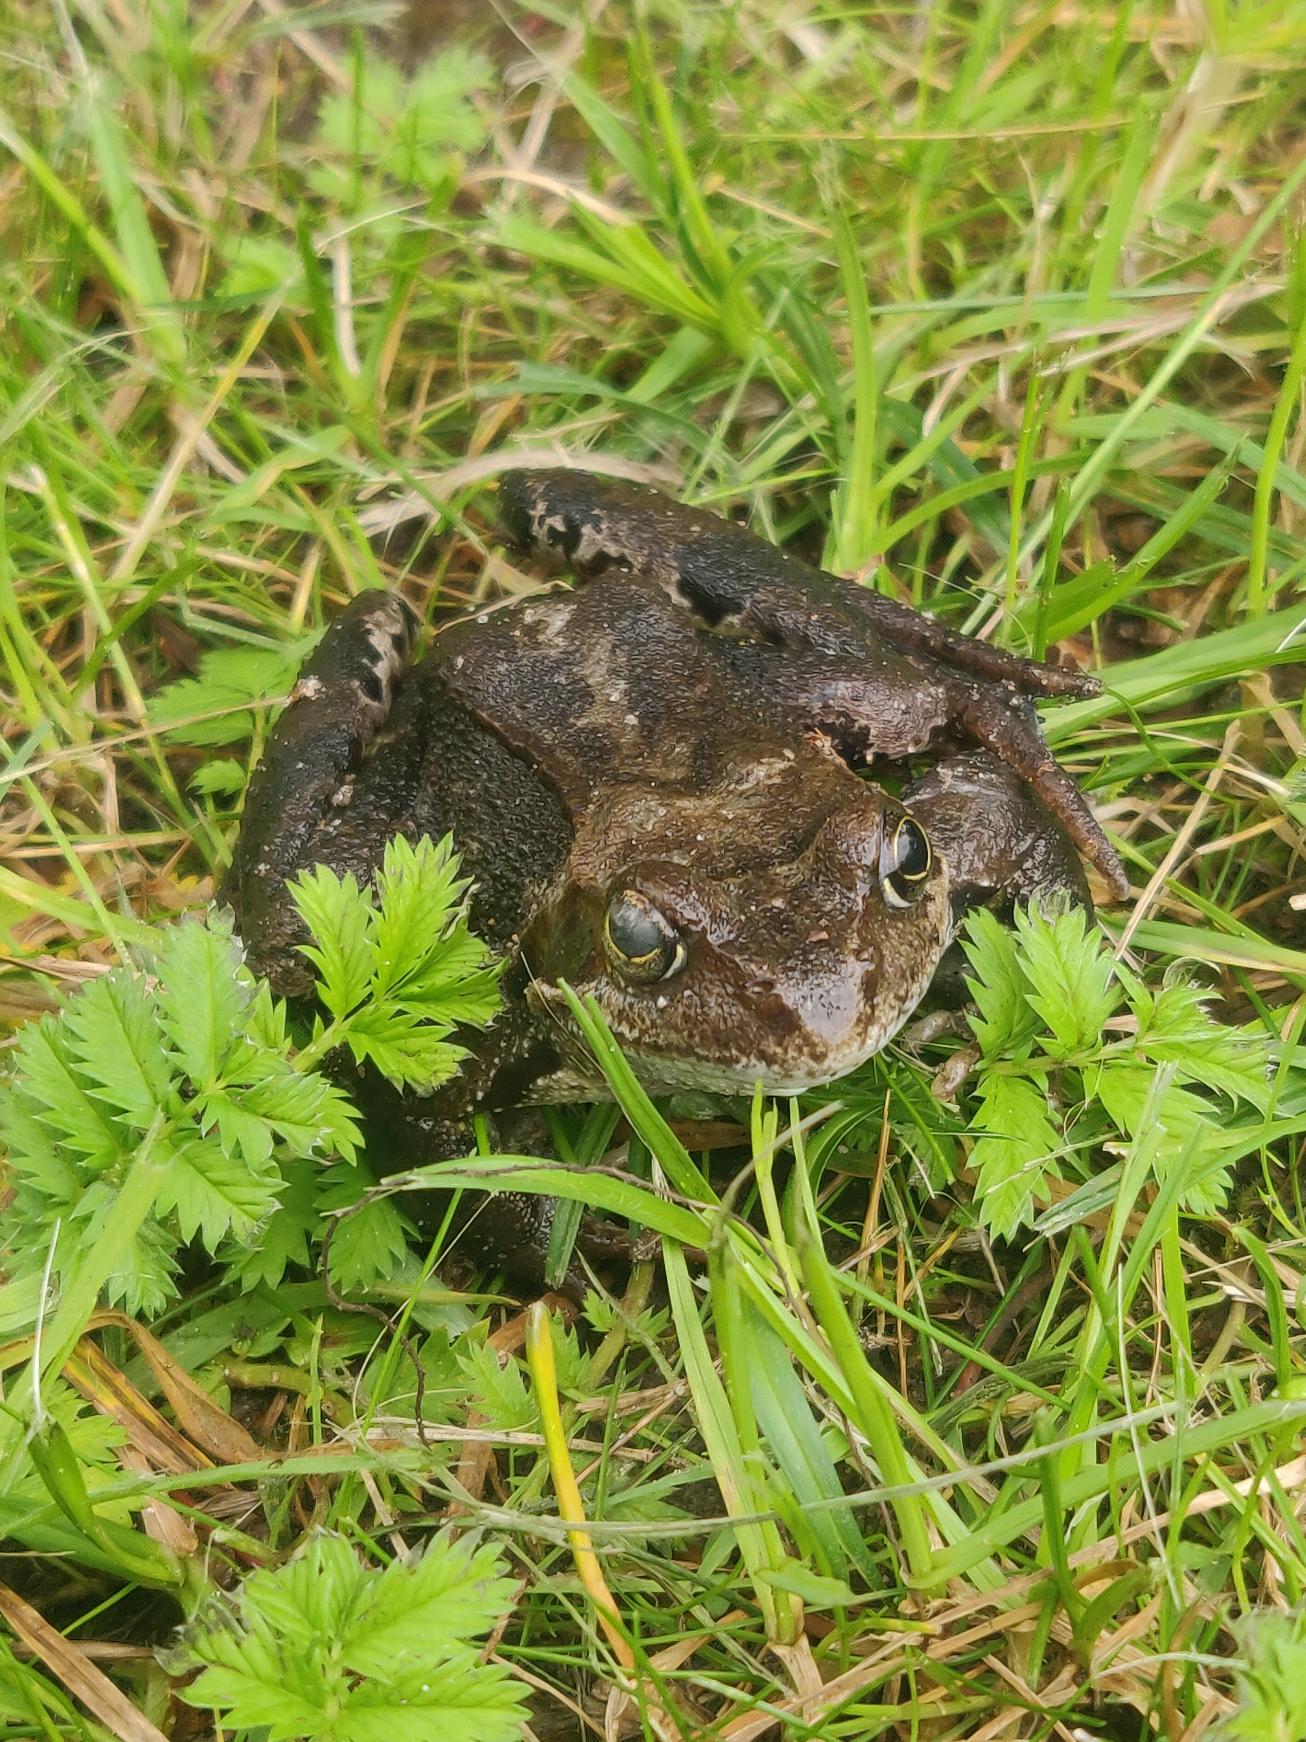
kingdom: Animalia
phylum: Chordata
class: Amphibia
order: Anura
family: Ranidae
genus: Rana
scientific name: Rana temporaria
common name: Butsnudet frø
